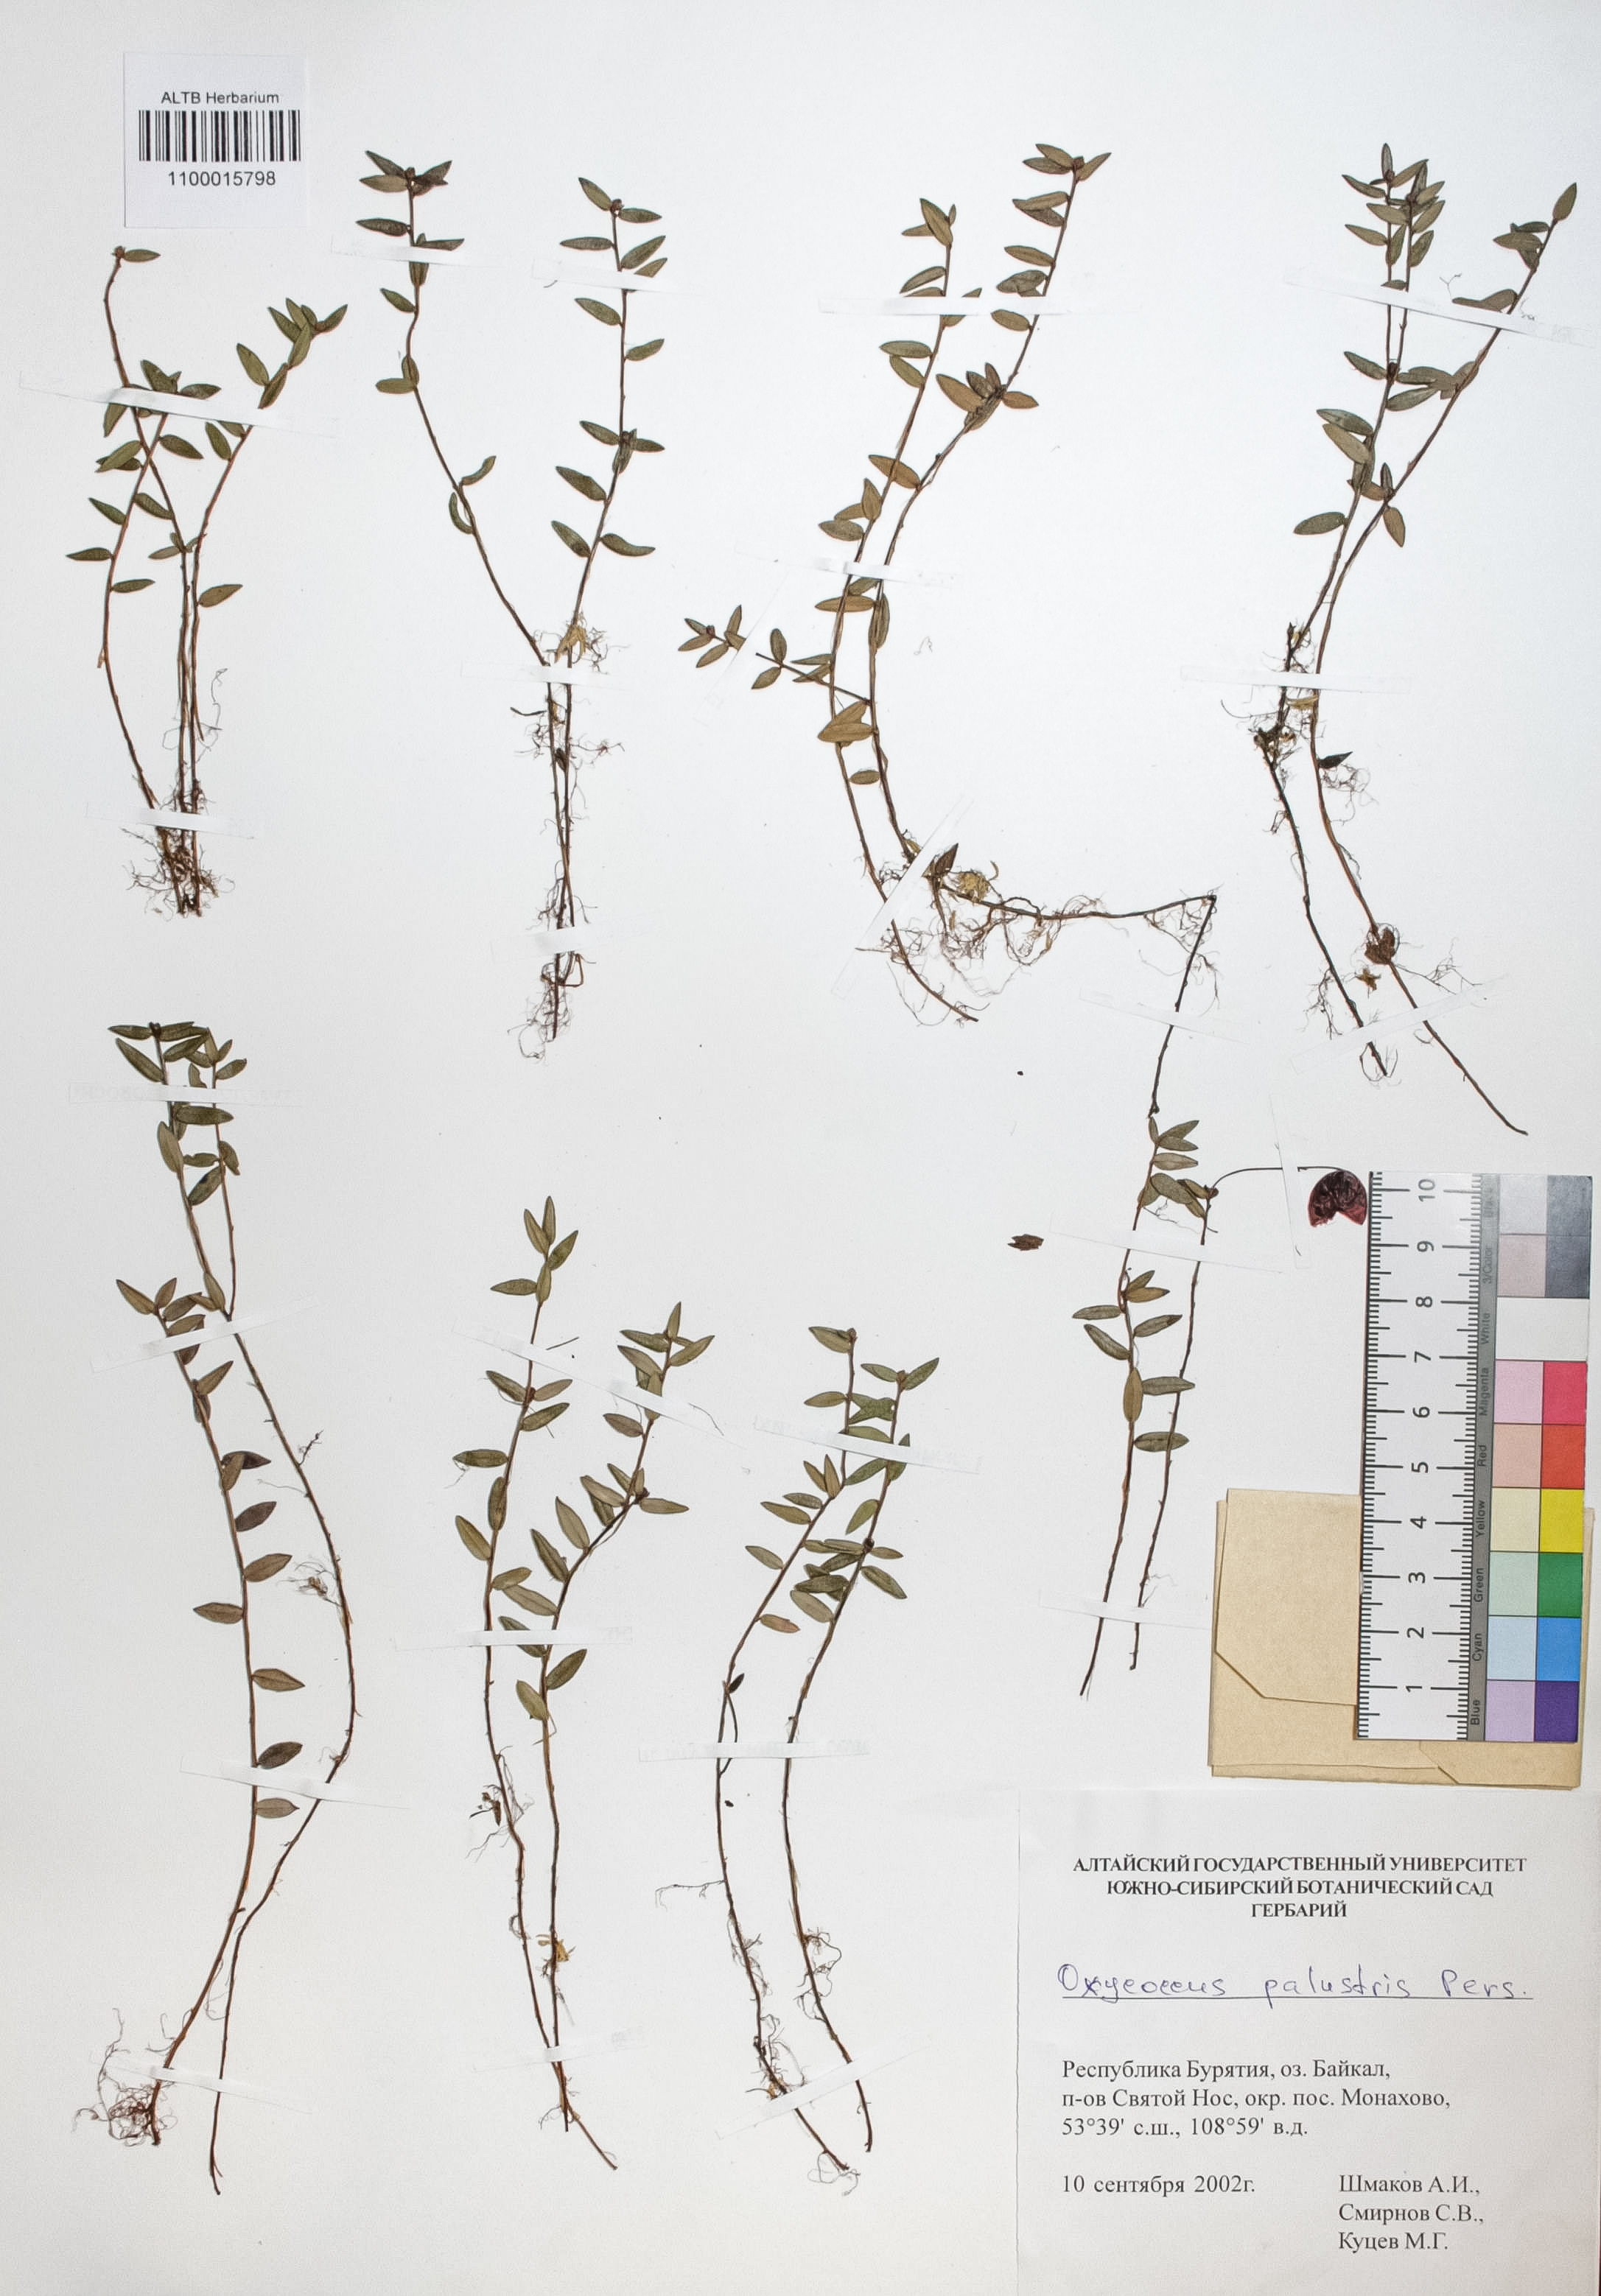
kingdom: Plantae
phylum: Tracheophyta
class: Magnoliopsida
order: Ericales
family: Ericaceae
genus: Vaccinium
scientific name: Vaccinium oxycoccos
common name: Cranberry
